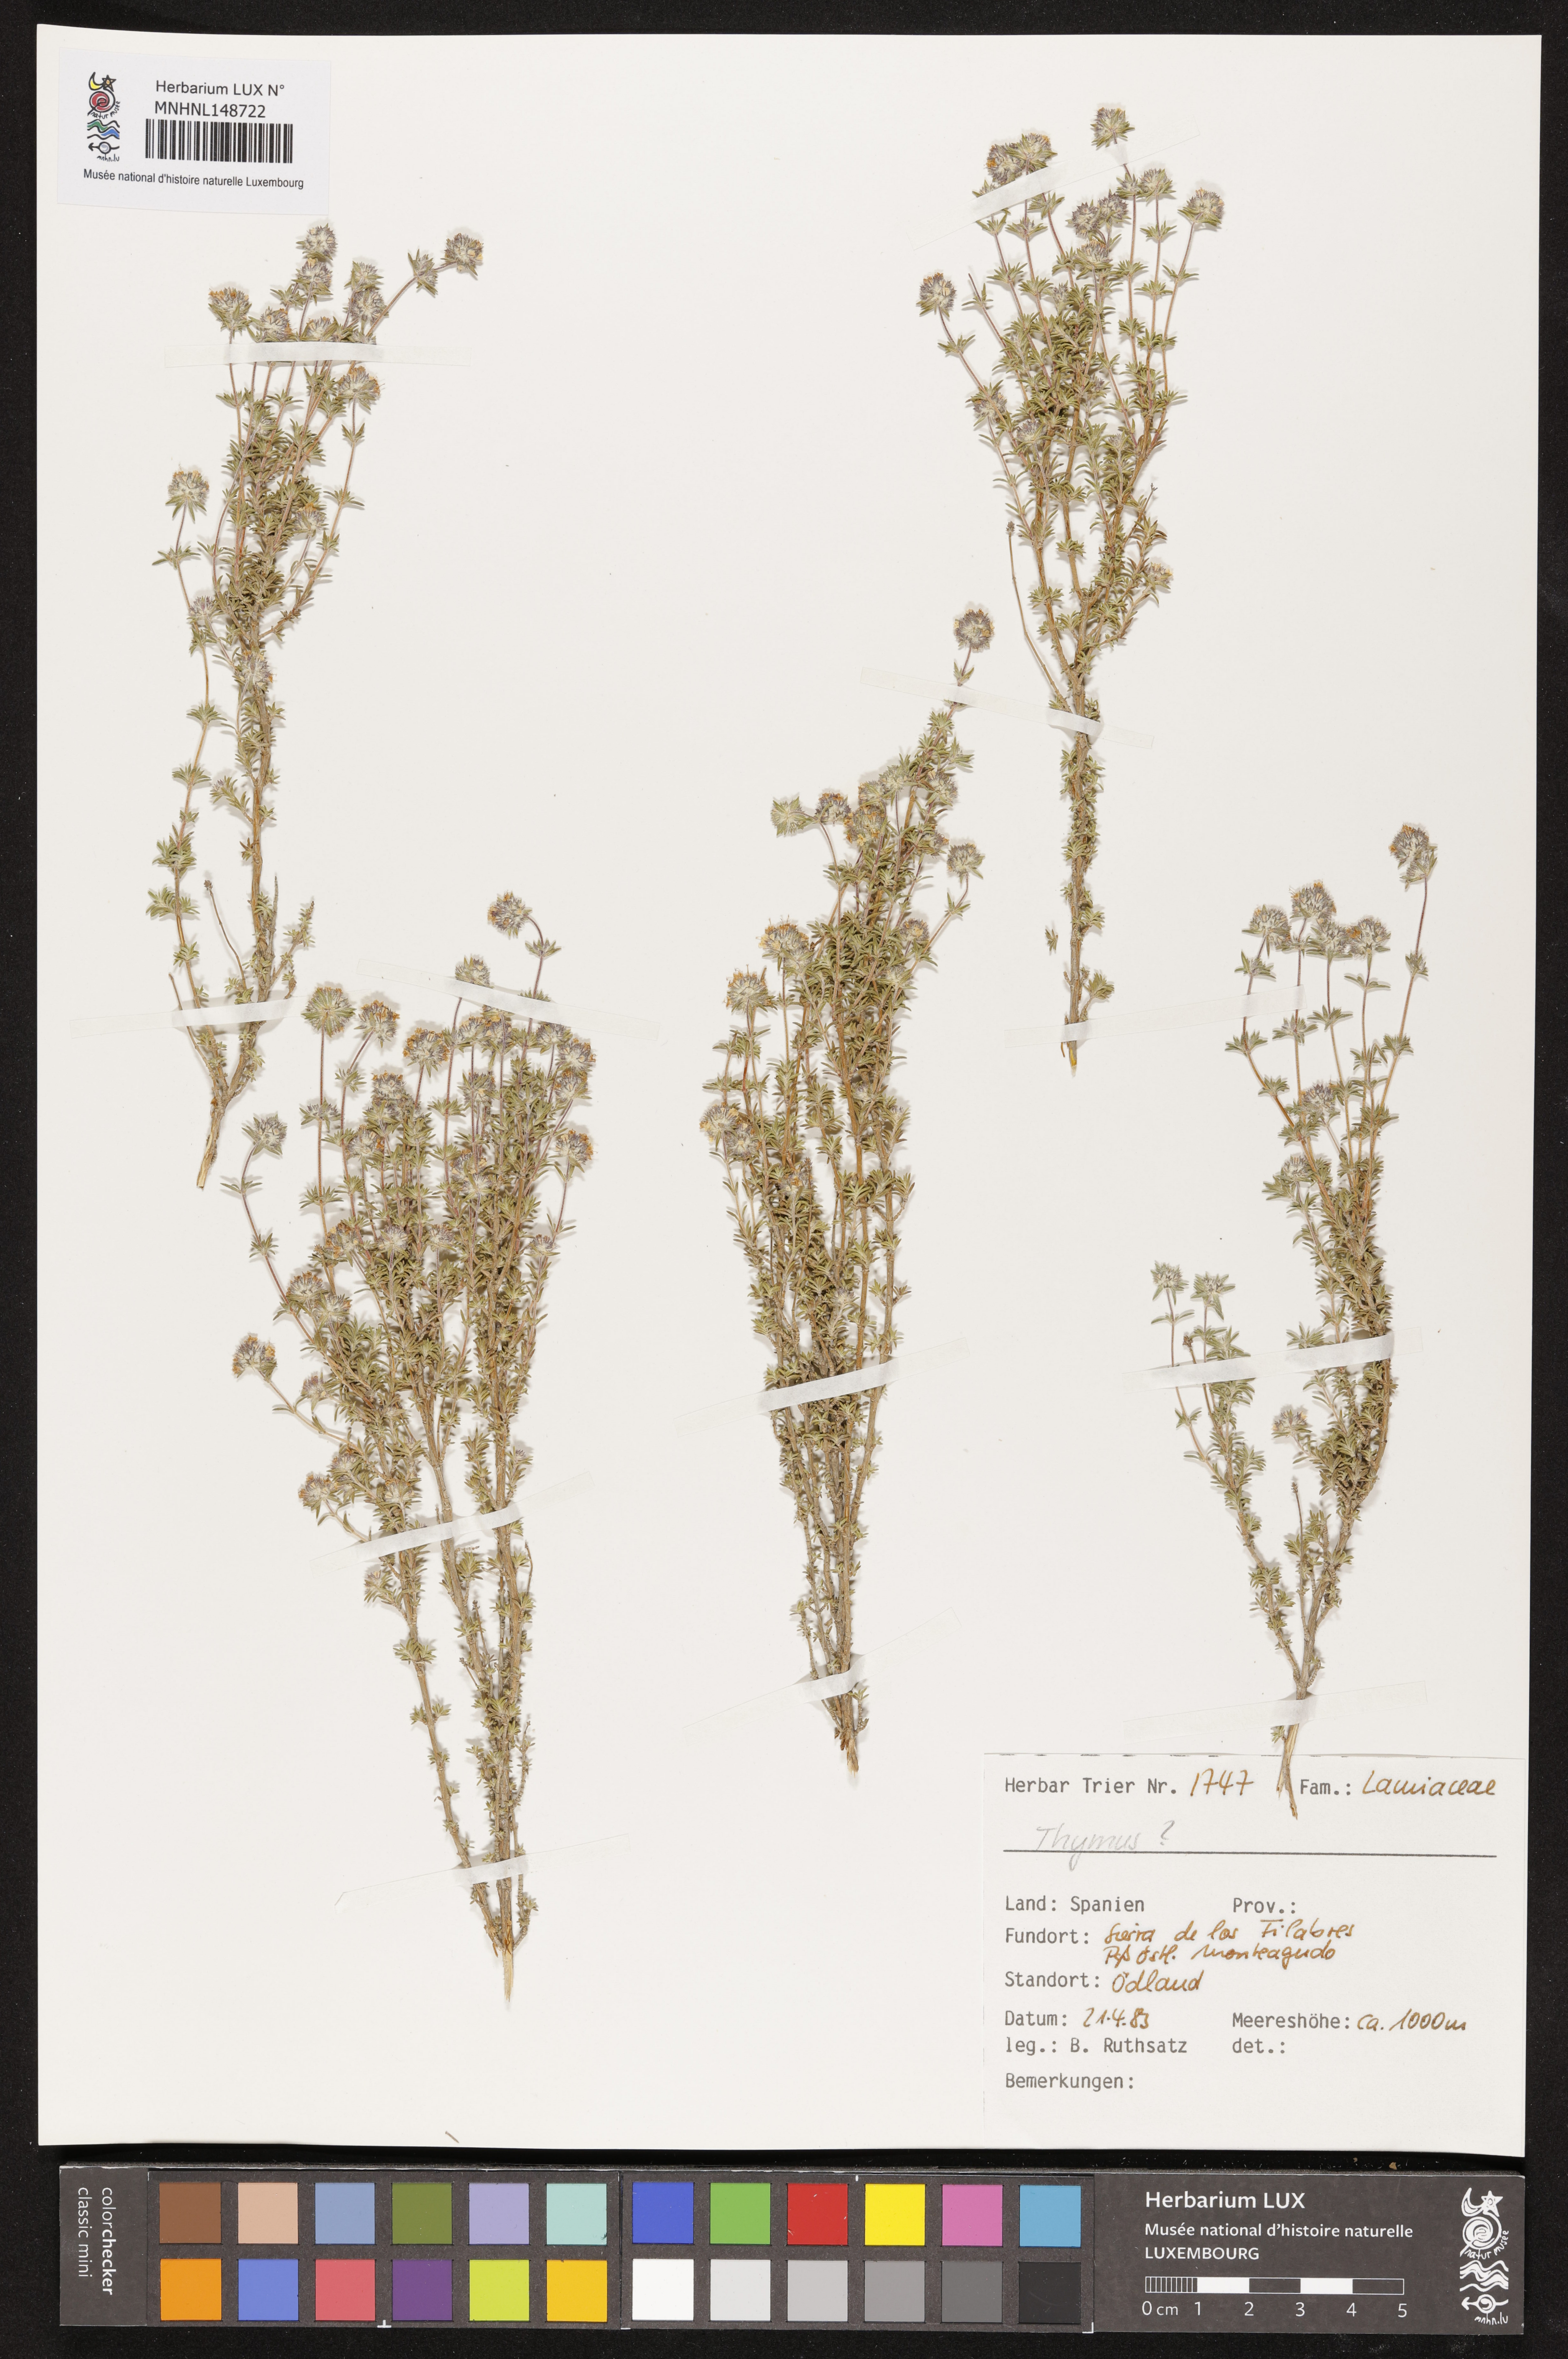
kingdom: Plantae
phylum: Tracheophyta
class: Magnoliopsida
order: Lamiales
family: Lamiaceae
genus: Thymus
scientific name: Thymus
